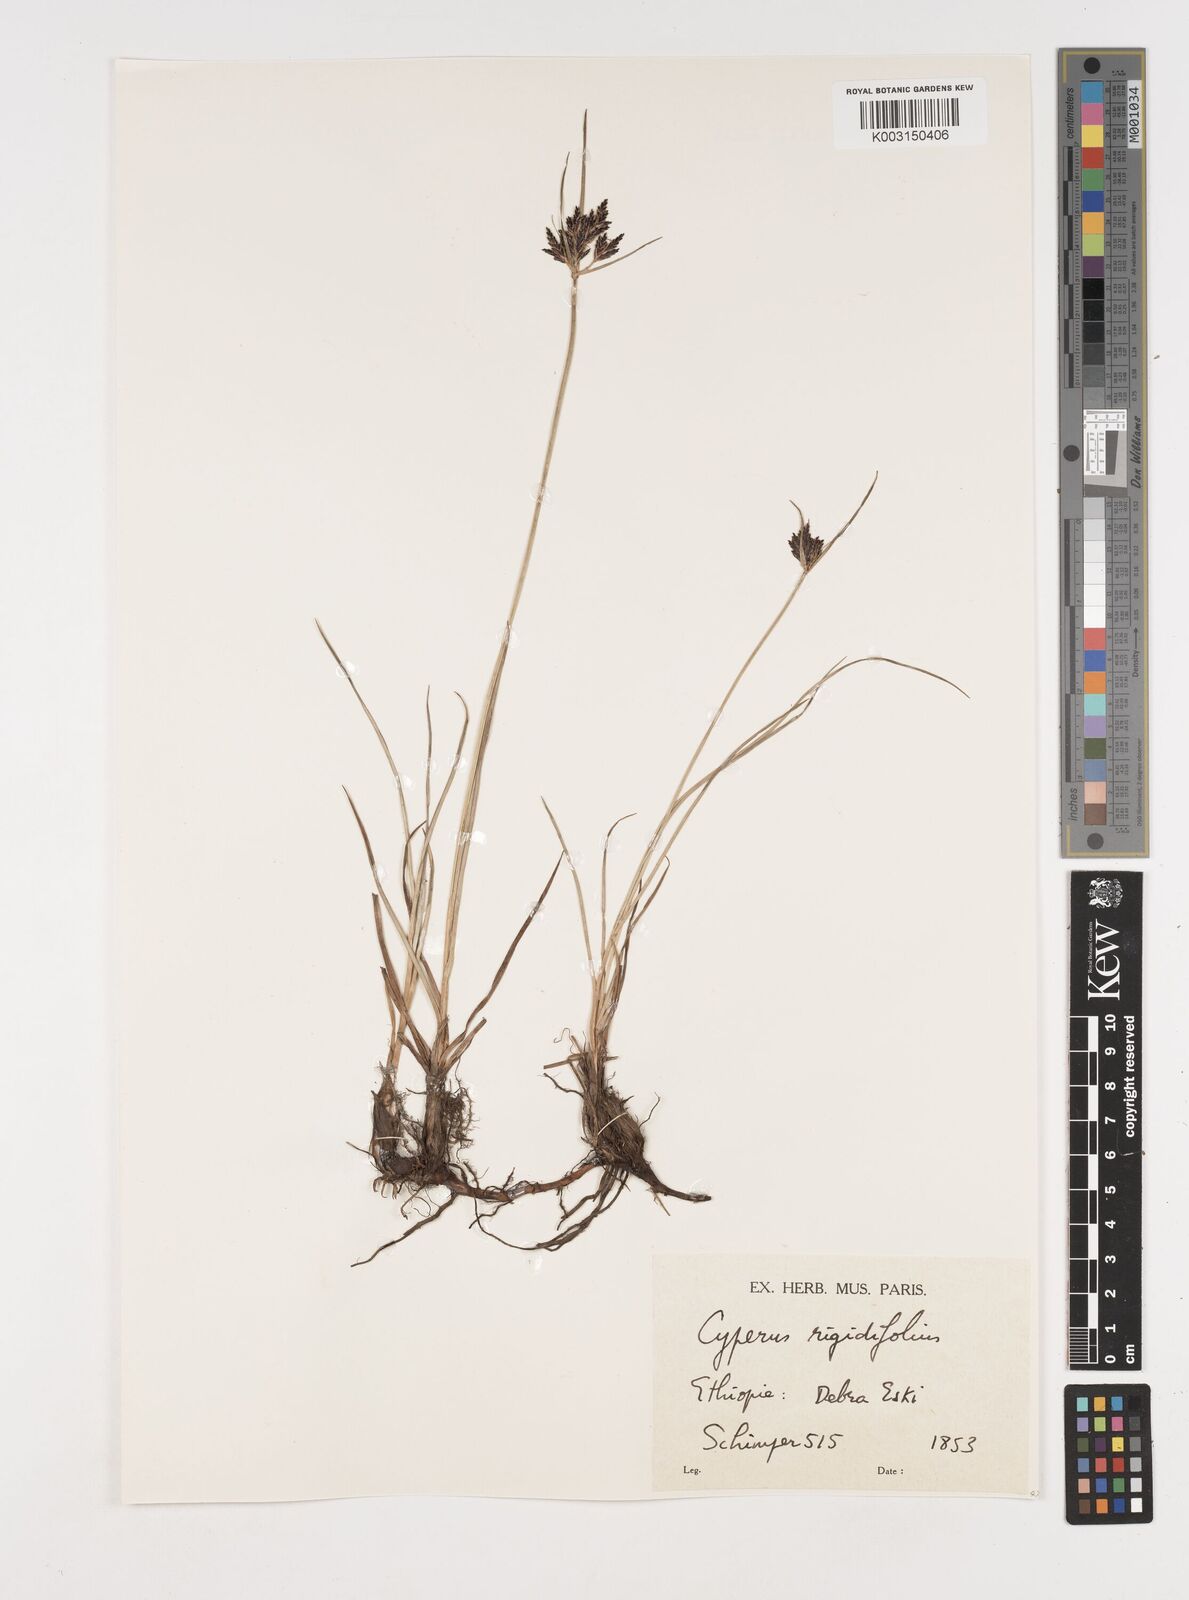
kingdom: Plantae
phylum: Tracheophyta
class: Liliopsida
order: Poales
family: Cyperaceae
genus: Cyperus
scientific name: Cyperus rigidifolius
